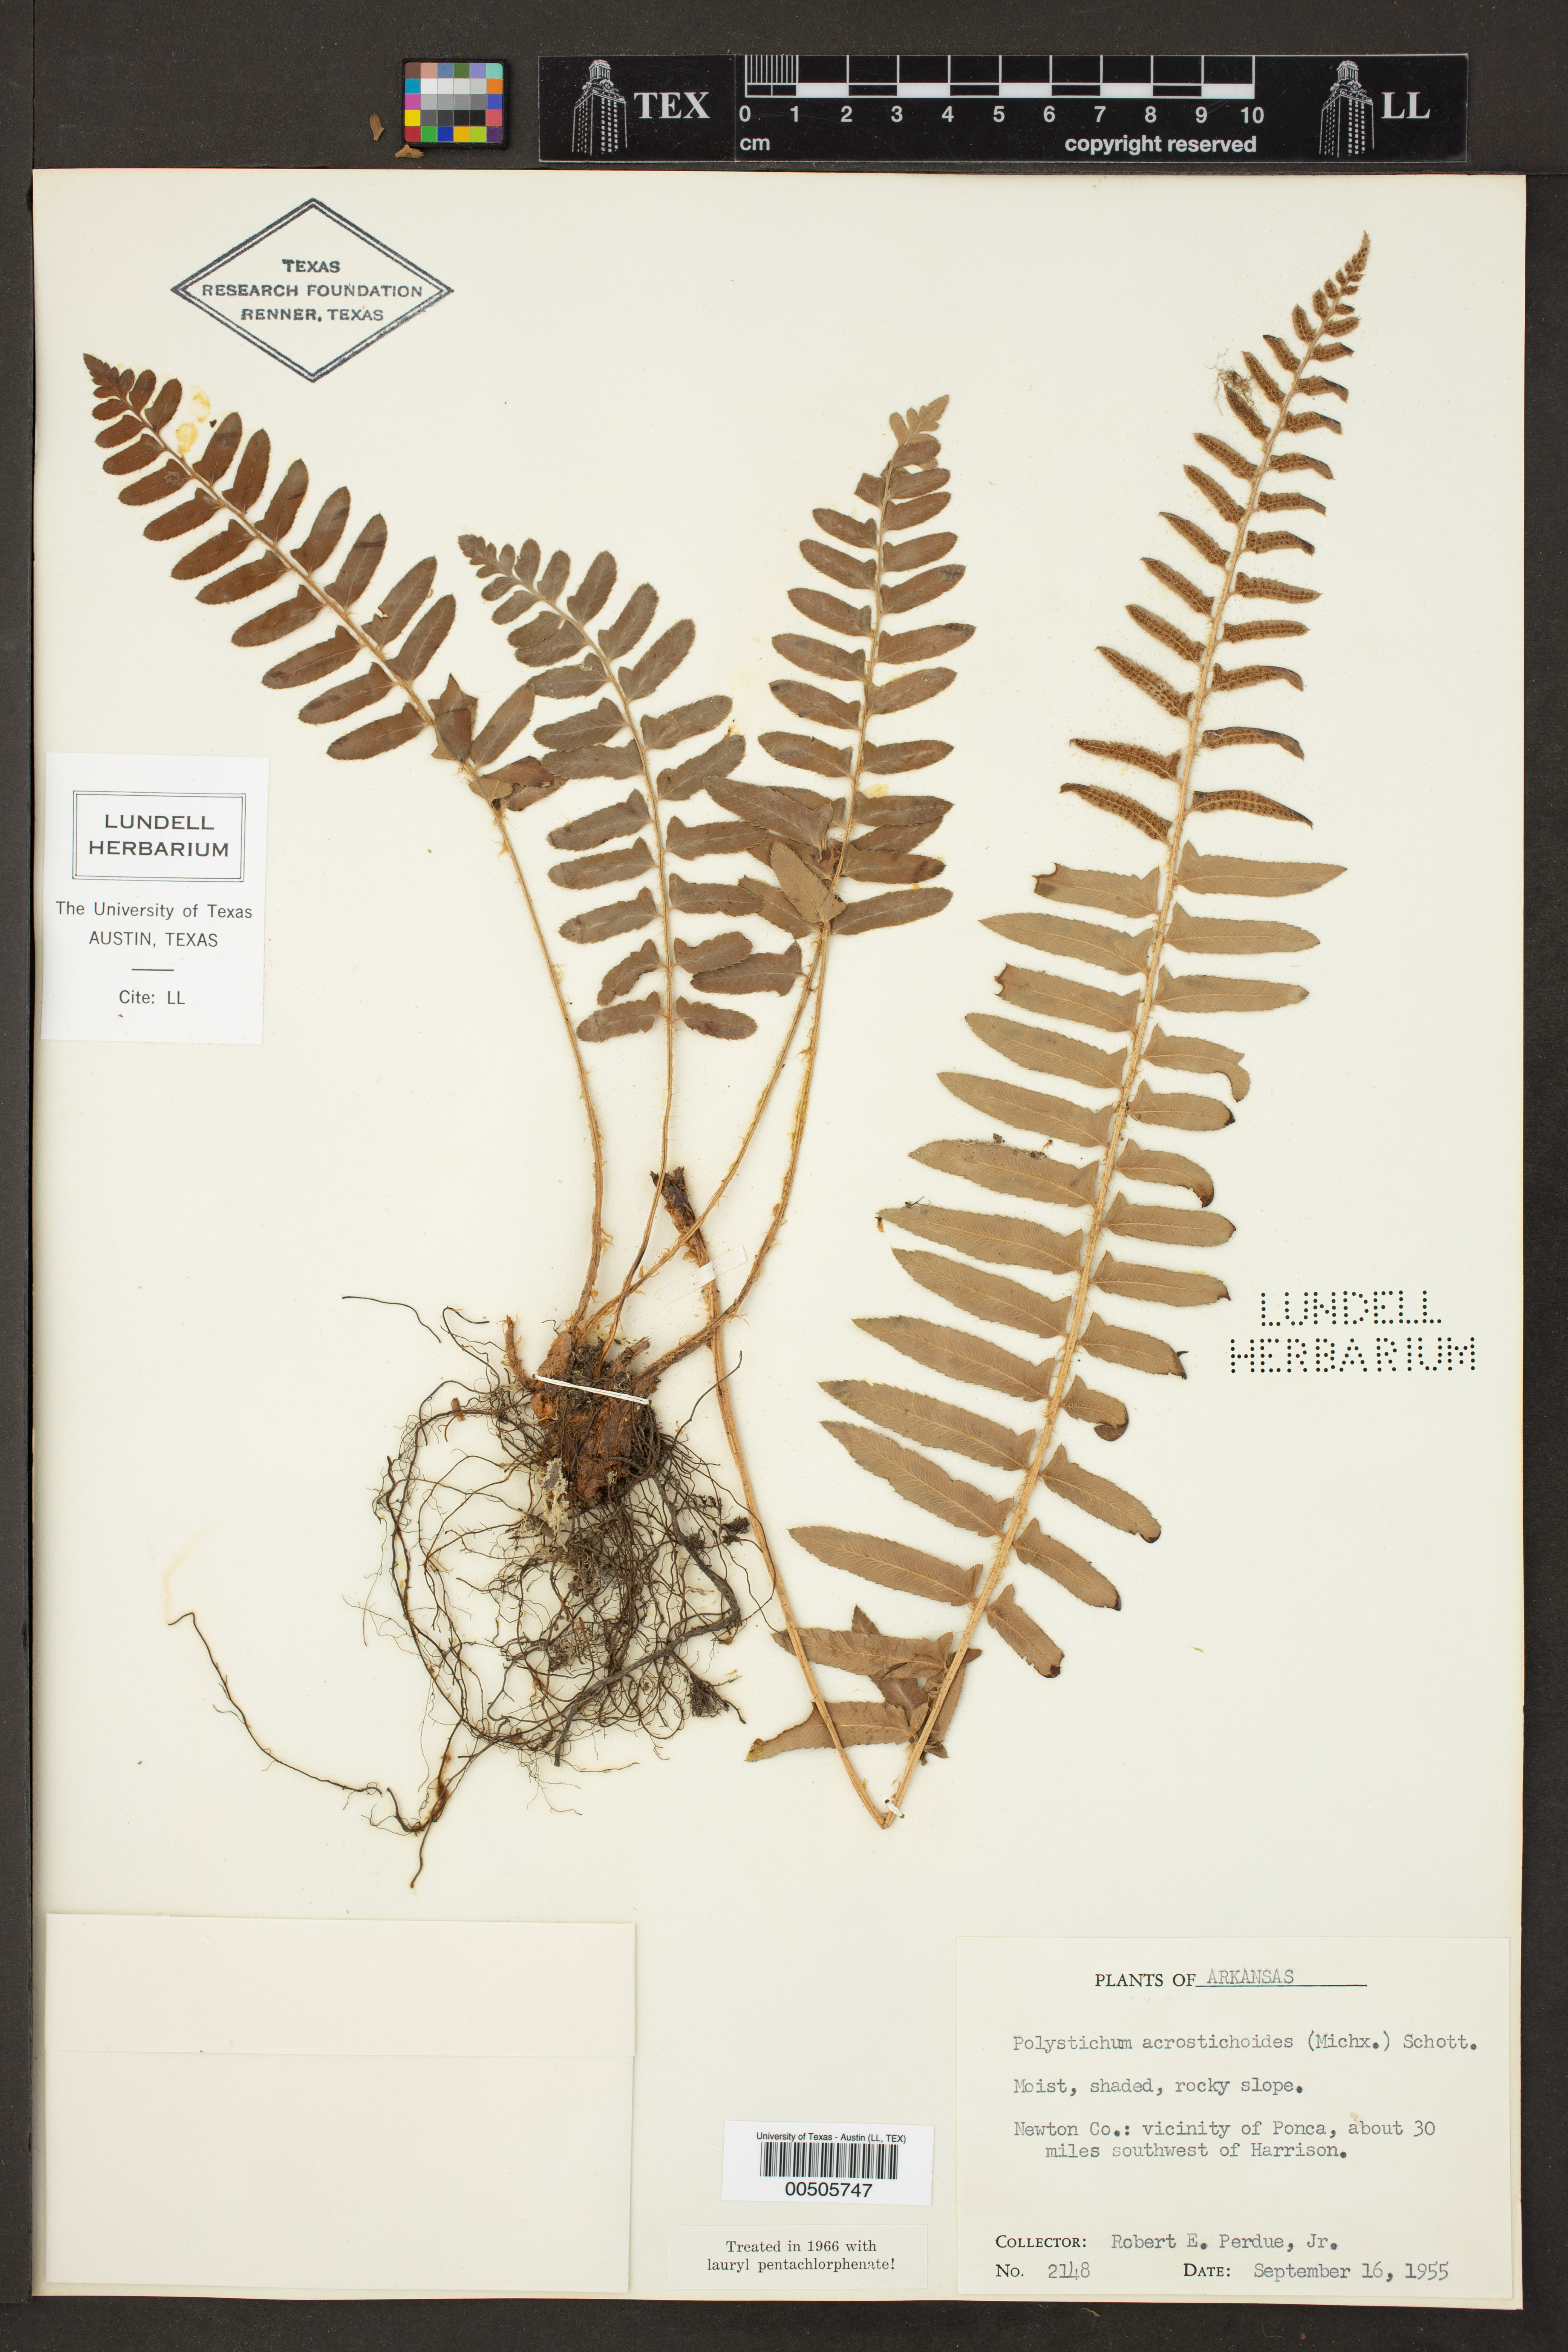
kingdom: Plantae
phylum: Tracheophyta
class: Polypodiopsida
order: Polypodiales
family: Dryopteridaceae
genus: Polystichum
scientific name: Polystichum acrostichoides
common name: Christmas fern
